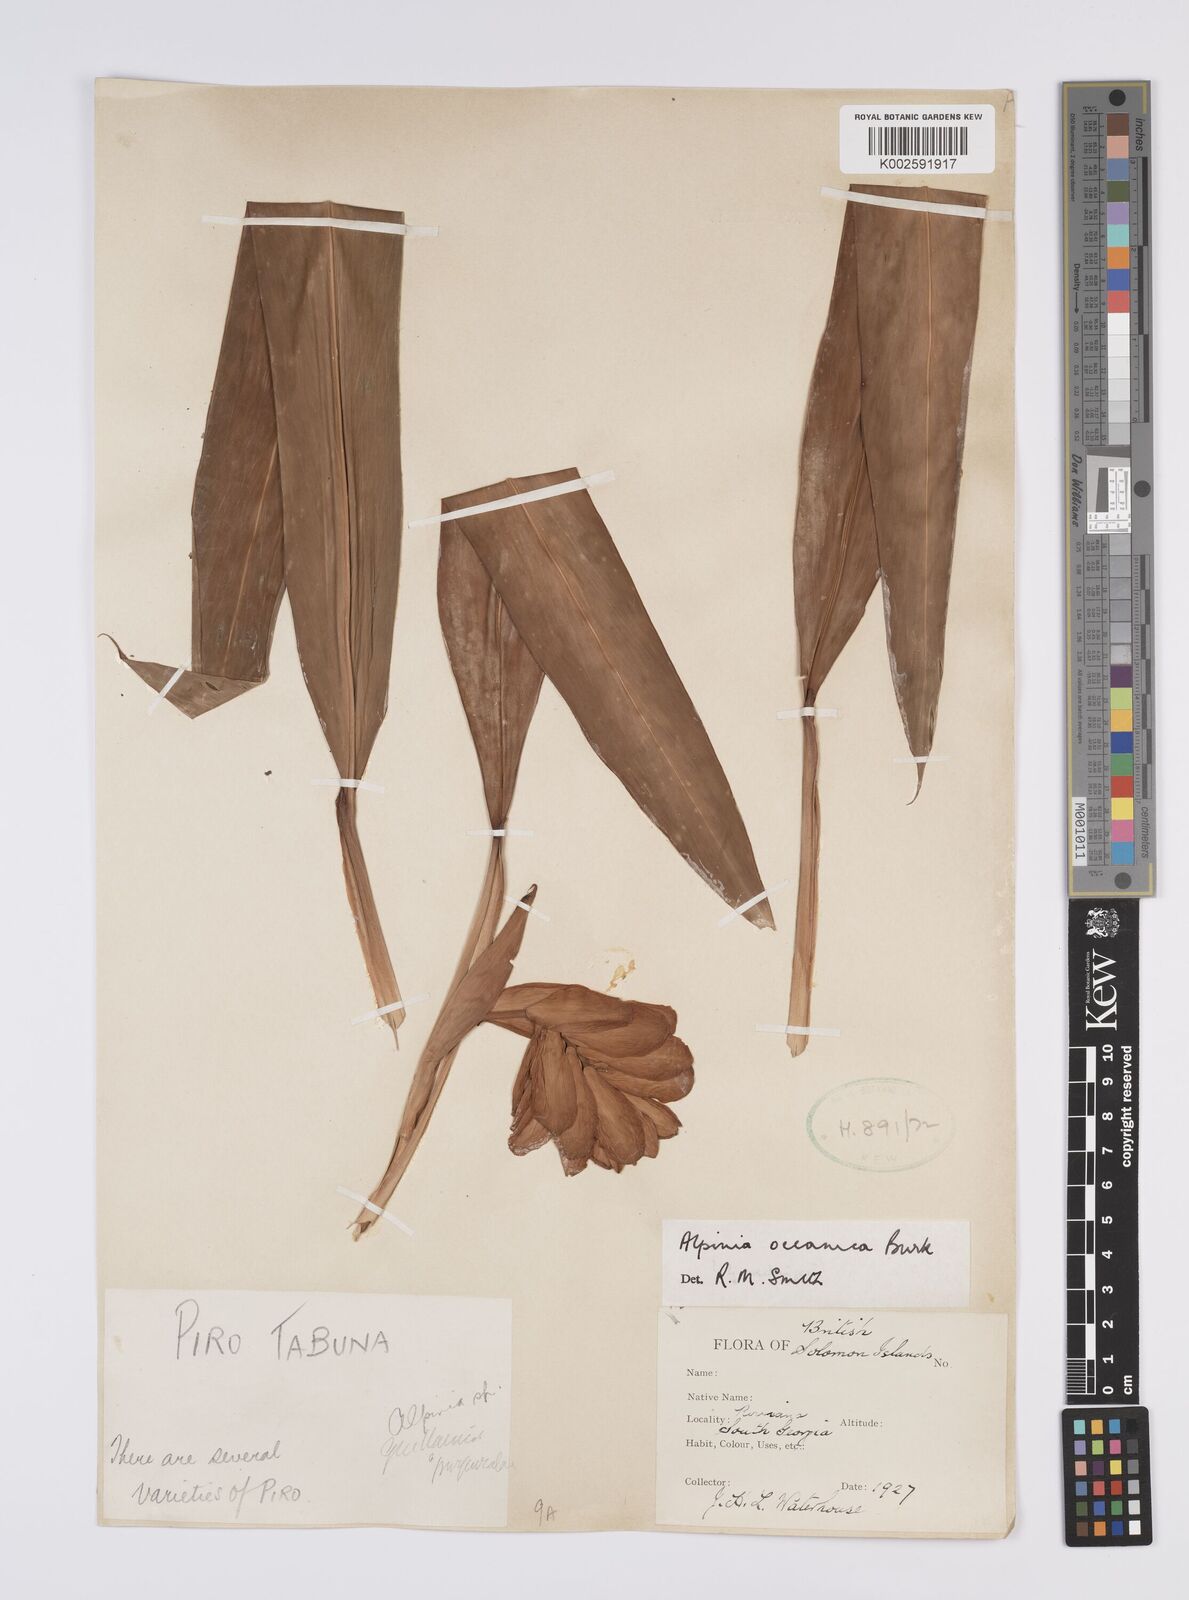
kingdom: Plantae
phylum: Tracheophyta
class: Liliopsida
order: Zingiberales
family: Zingiberaceae
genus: Alpinia
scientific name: Alpinia oceanica
